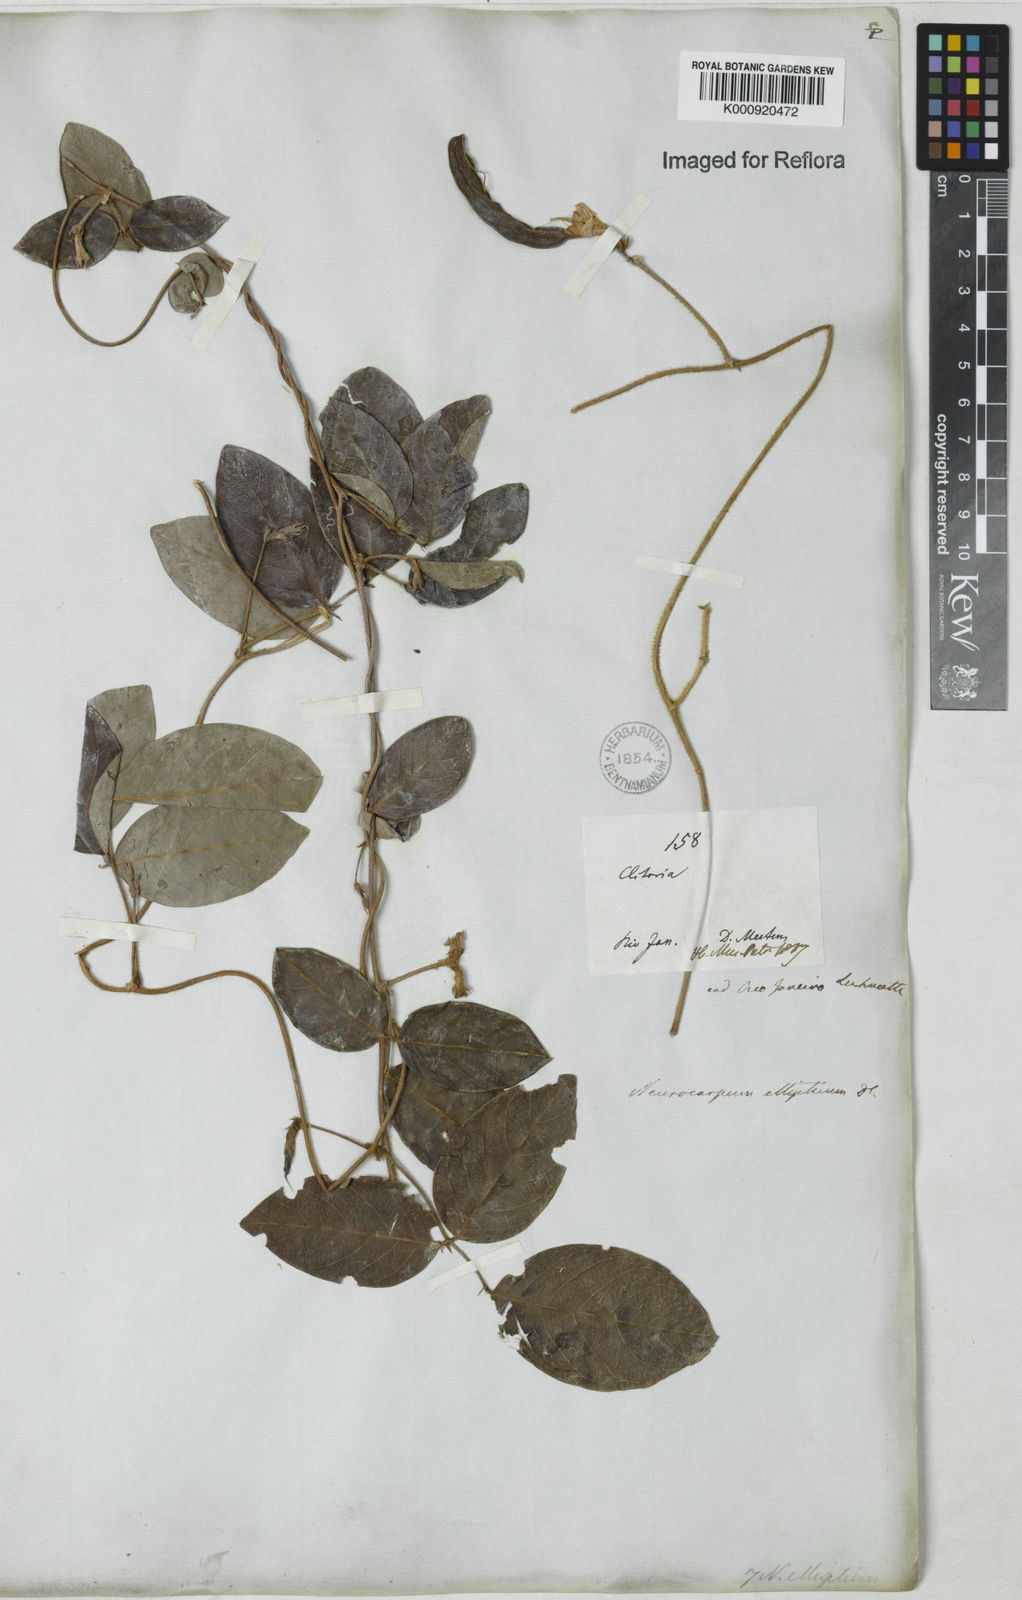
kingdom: Plantae
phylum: Tracheophyta
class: Magnoliopsida
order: Fabales
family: Fabaceae
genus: Clitoria
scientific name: Clitoria
